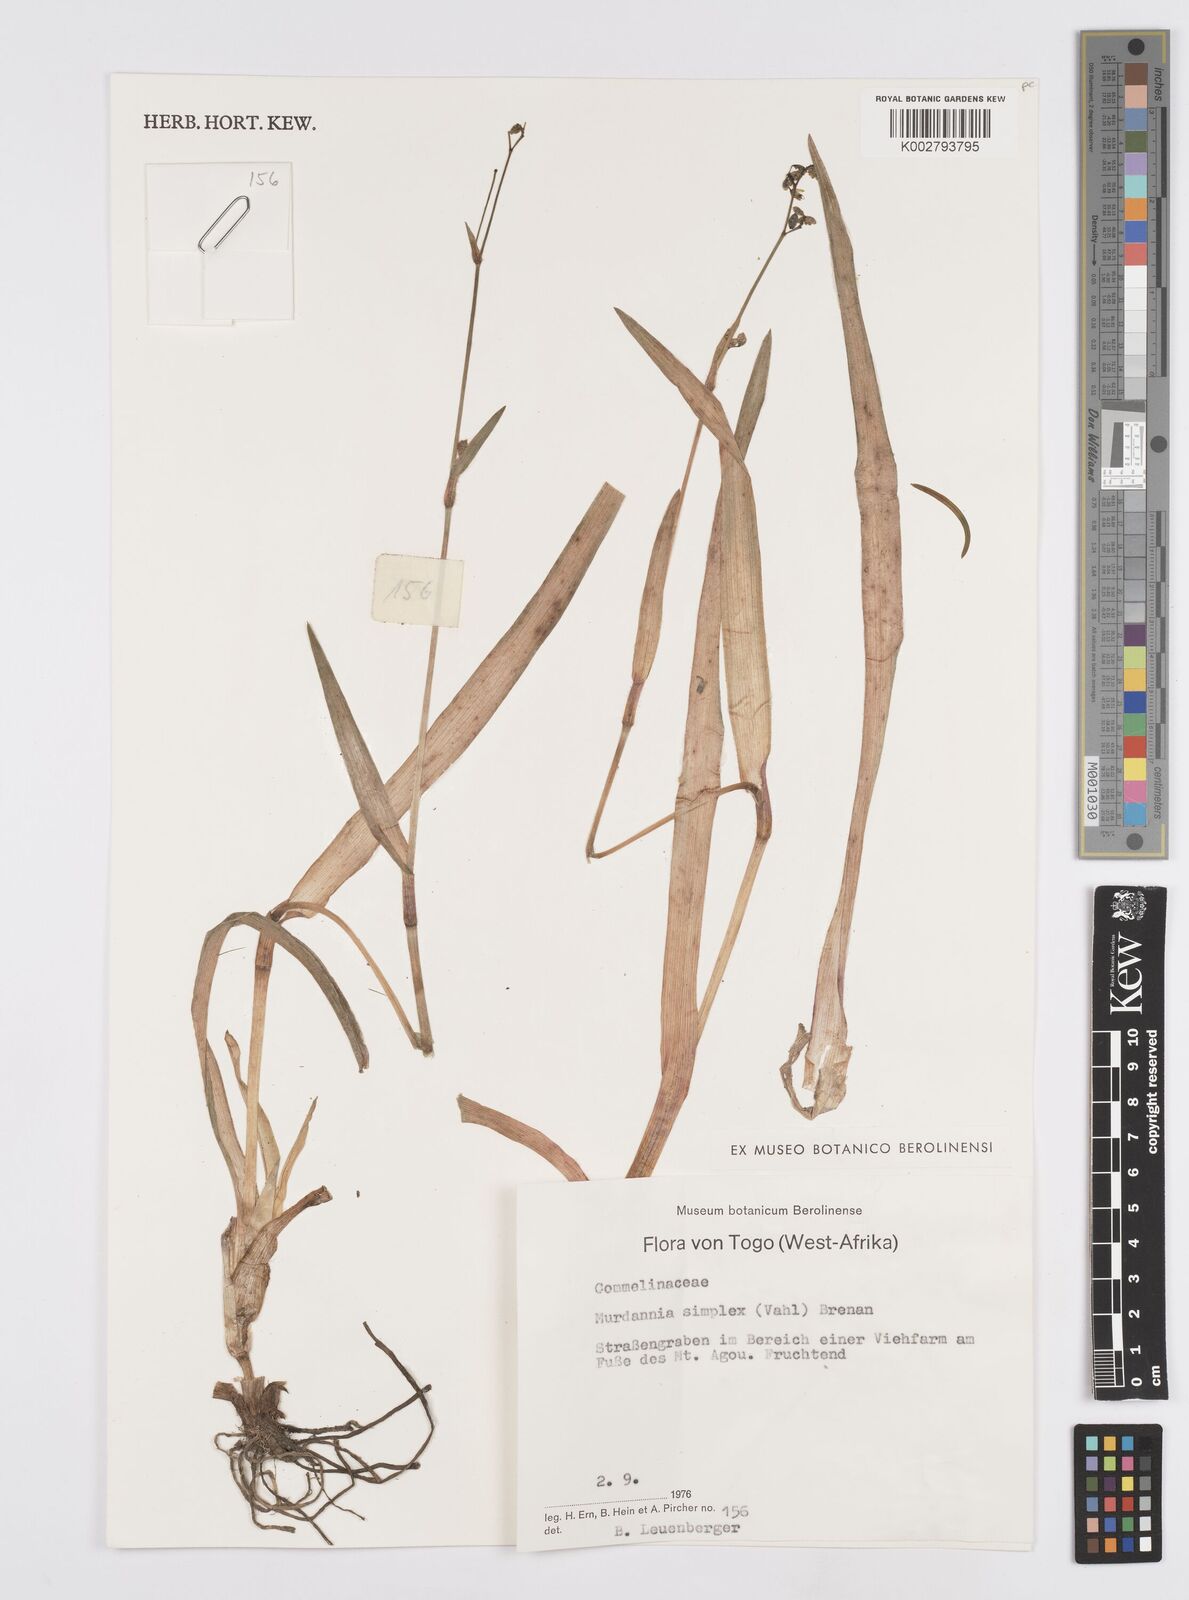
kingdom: Plantae
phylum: Tracheophyta
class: Liliopsida
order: Commelinales
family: Commelinaceae
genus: Murdannia
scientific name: Murdannia simplex
